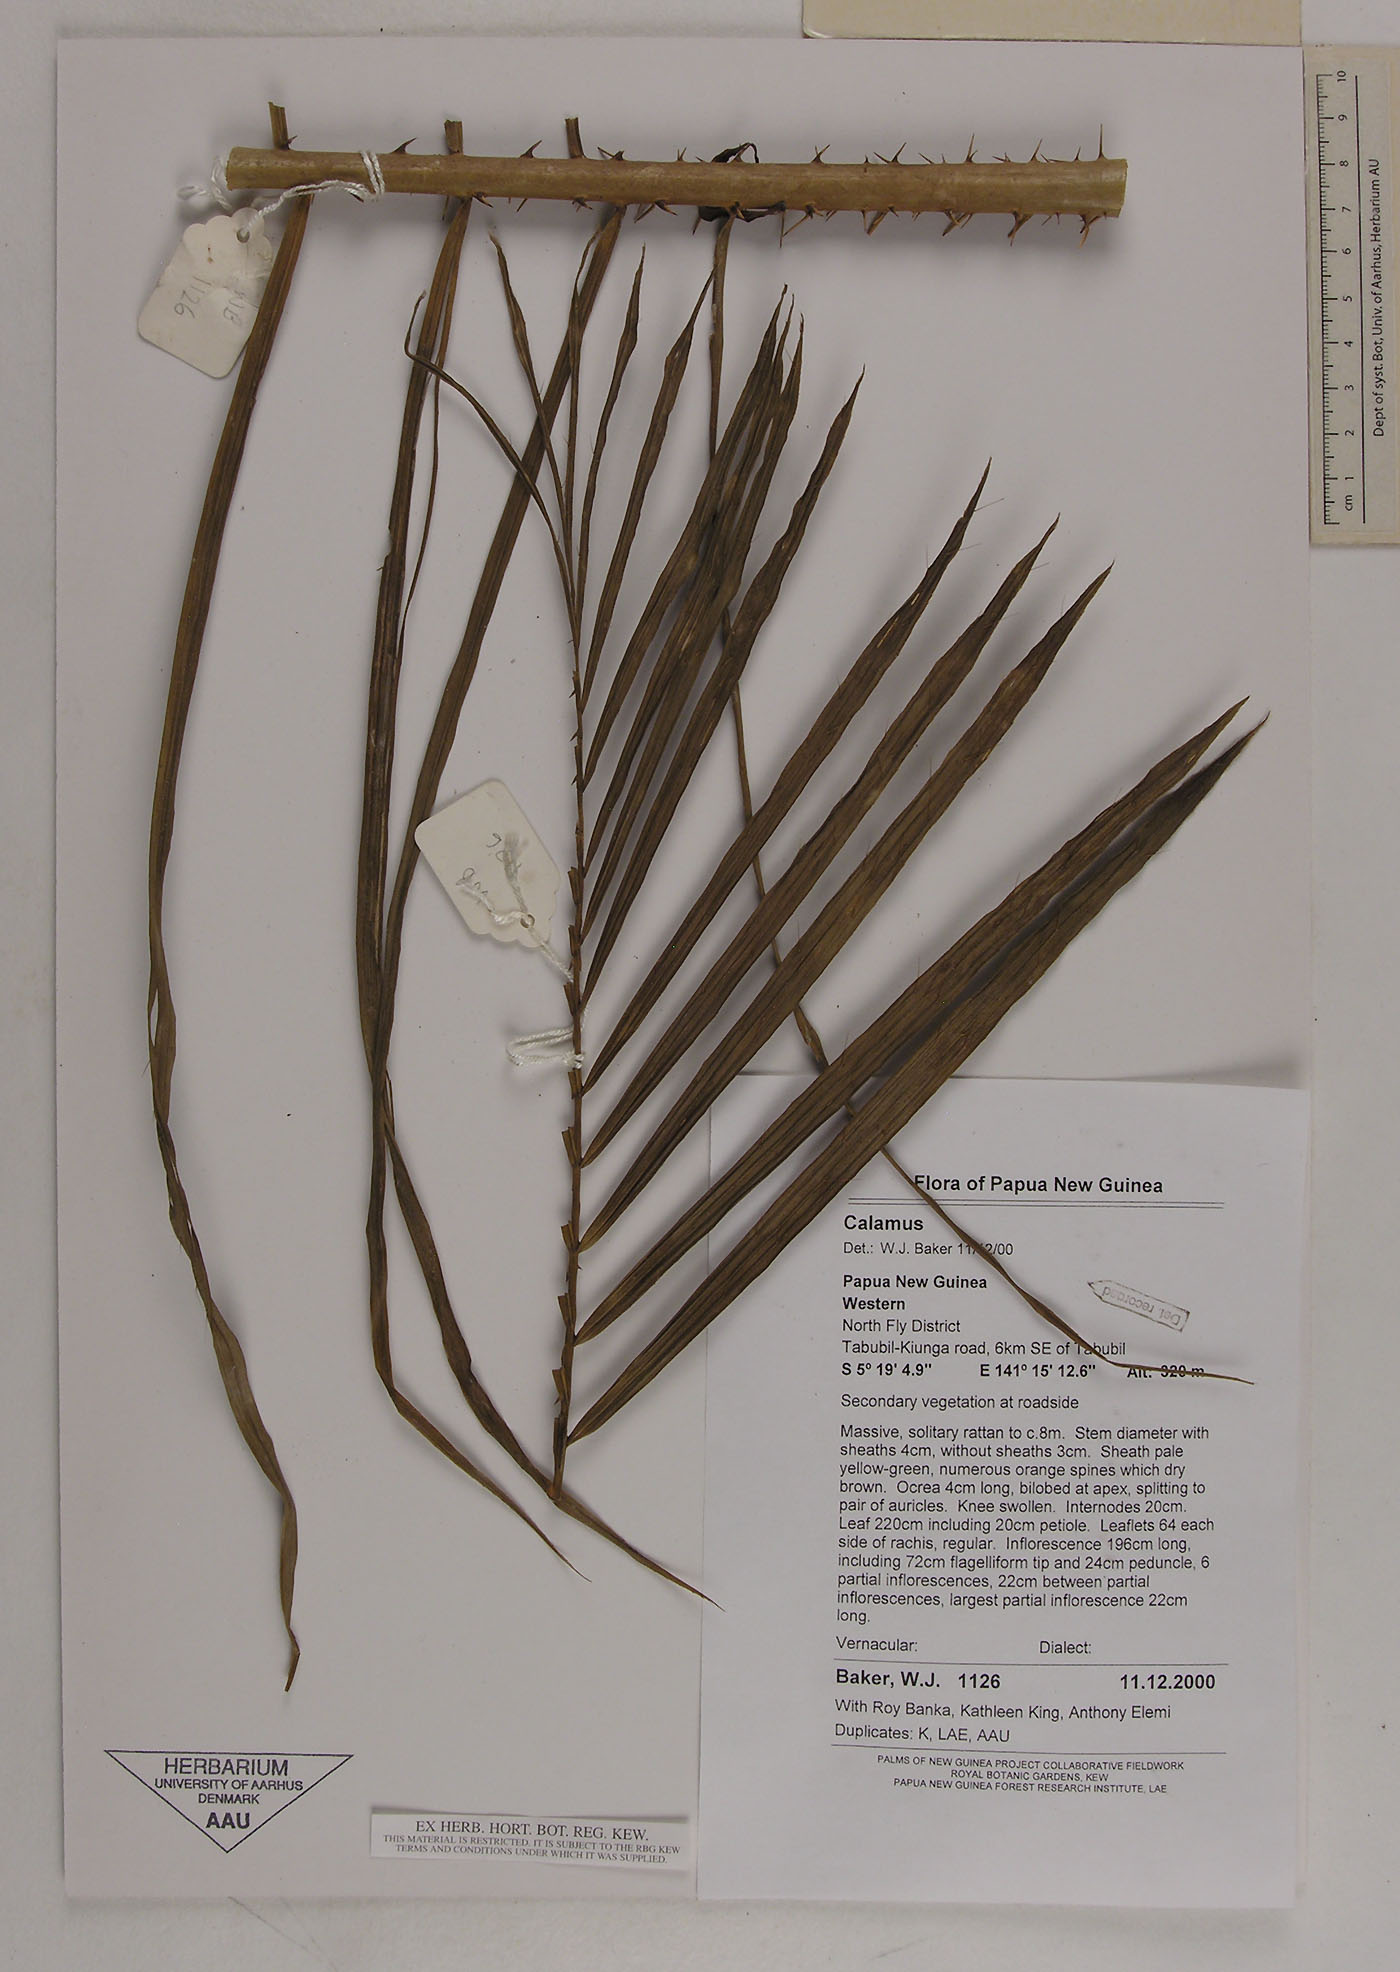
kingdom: Plantae
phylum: Tracheophyta
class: Liliopsida
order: Arecales
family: Arecaceae
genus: Calamus
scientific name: Calamus fertilis
